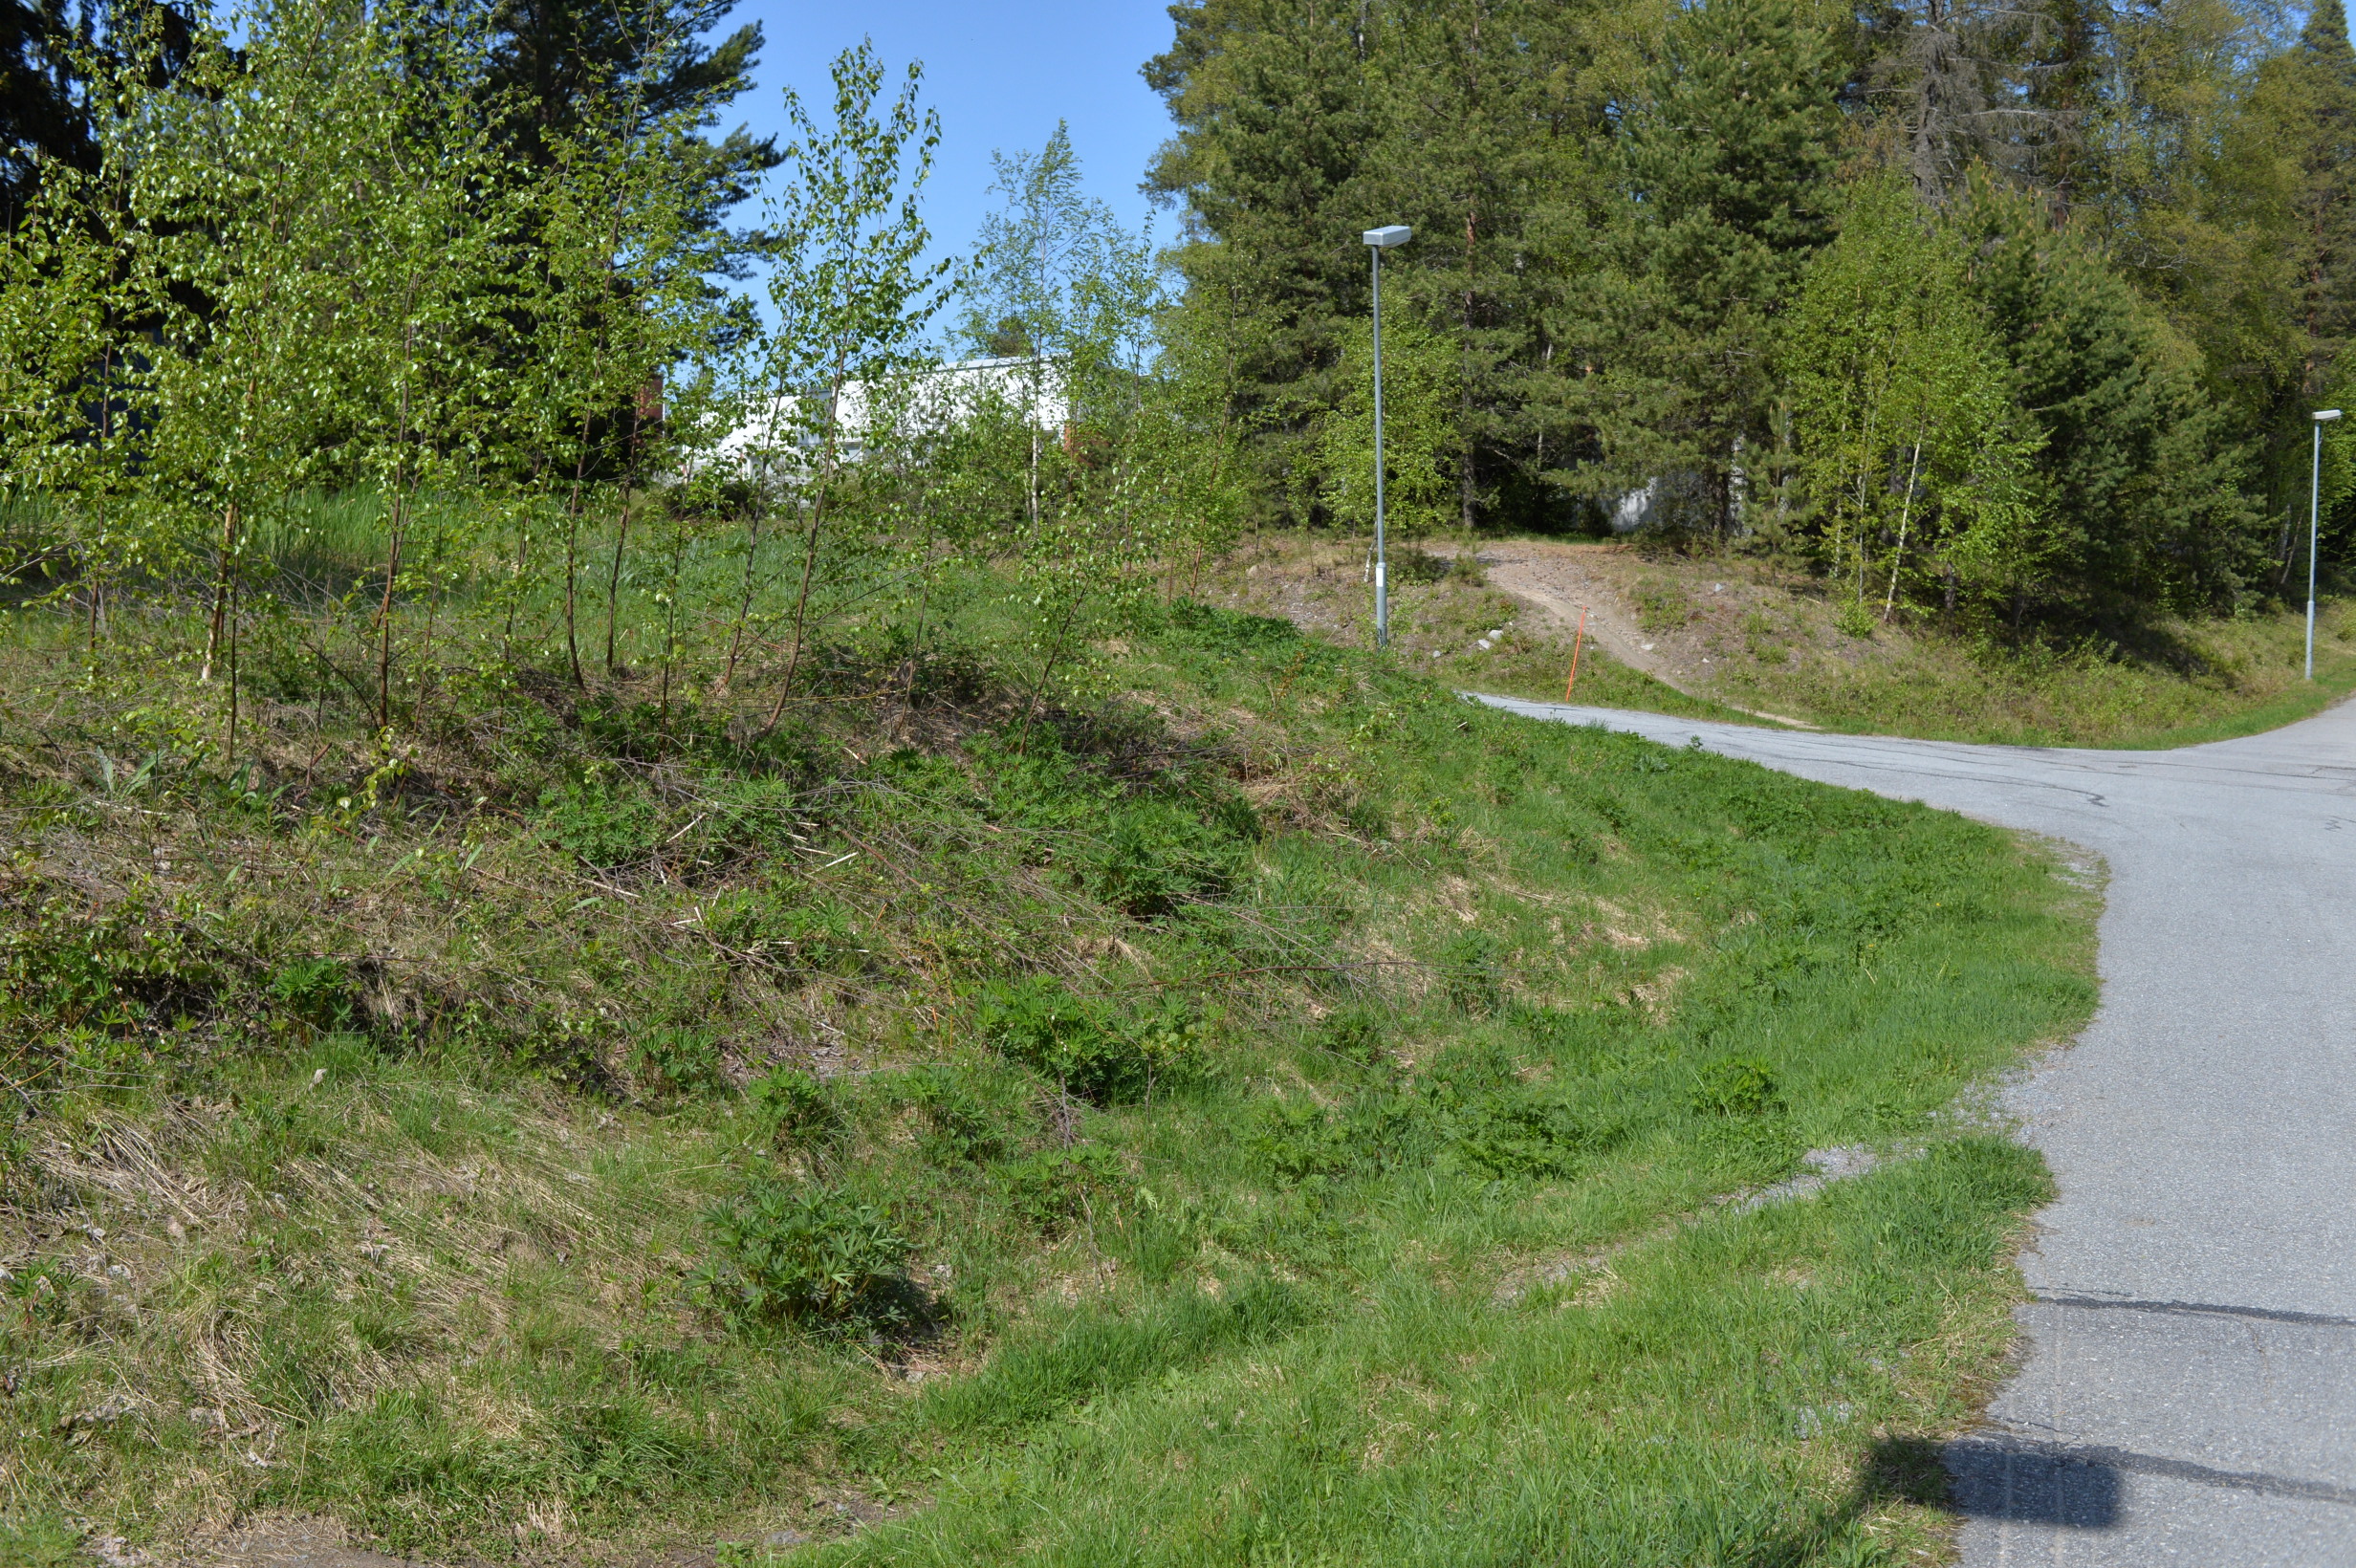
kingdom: Plantae
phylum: Tracheophyta
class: Magnoliopsida
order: Fabales
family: Fabaceae
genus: Lupinus
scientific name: Lupinus polyphyllus
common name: Garden lupin
